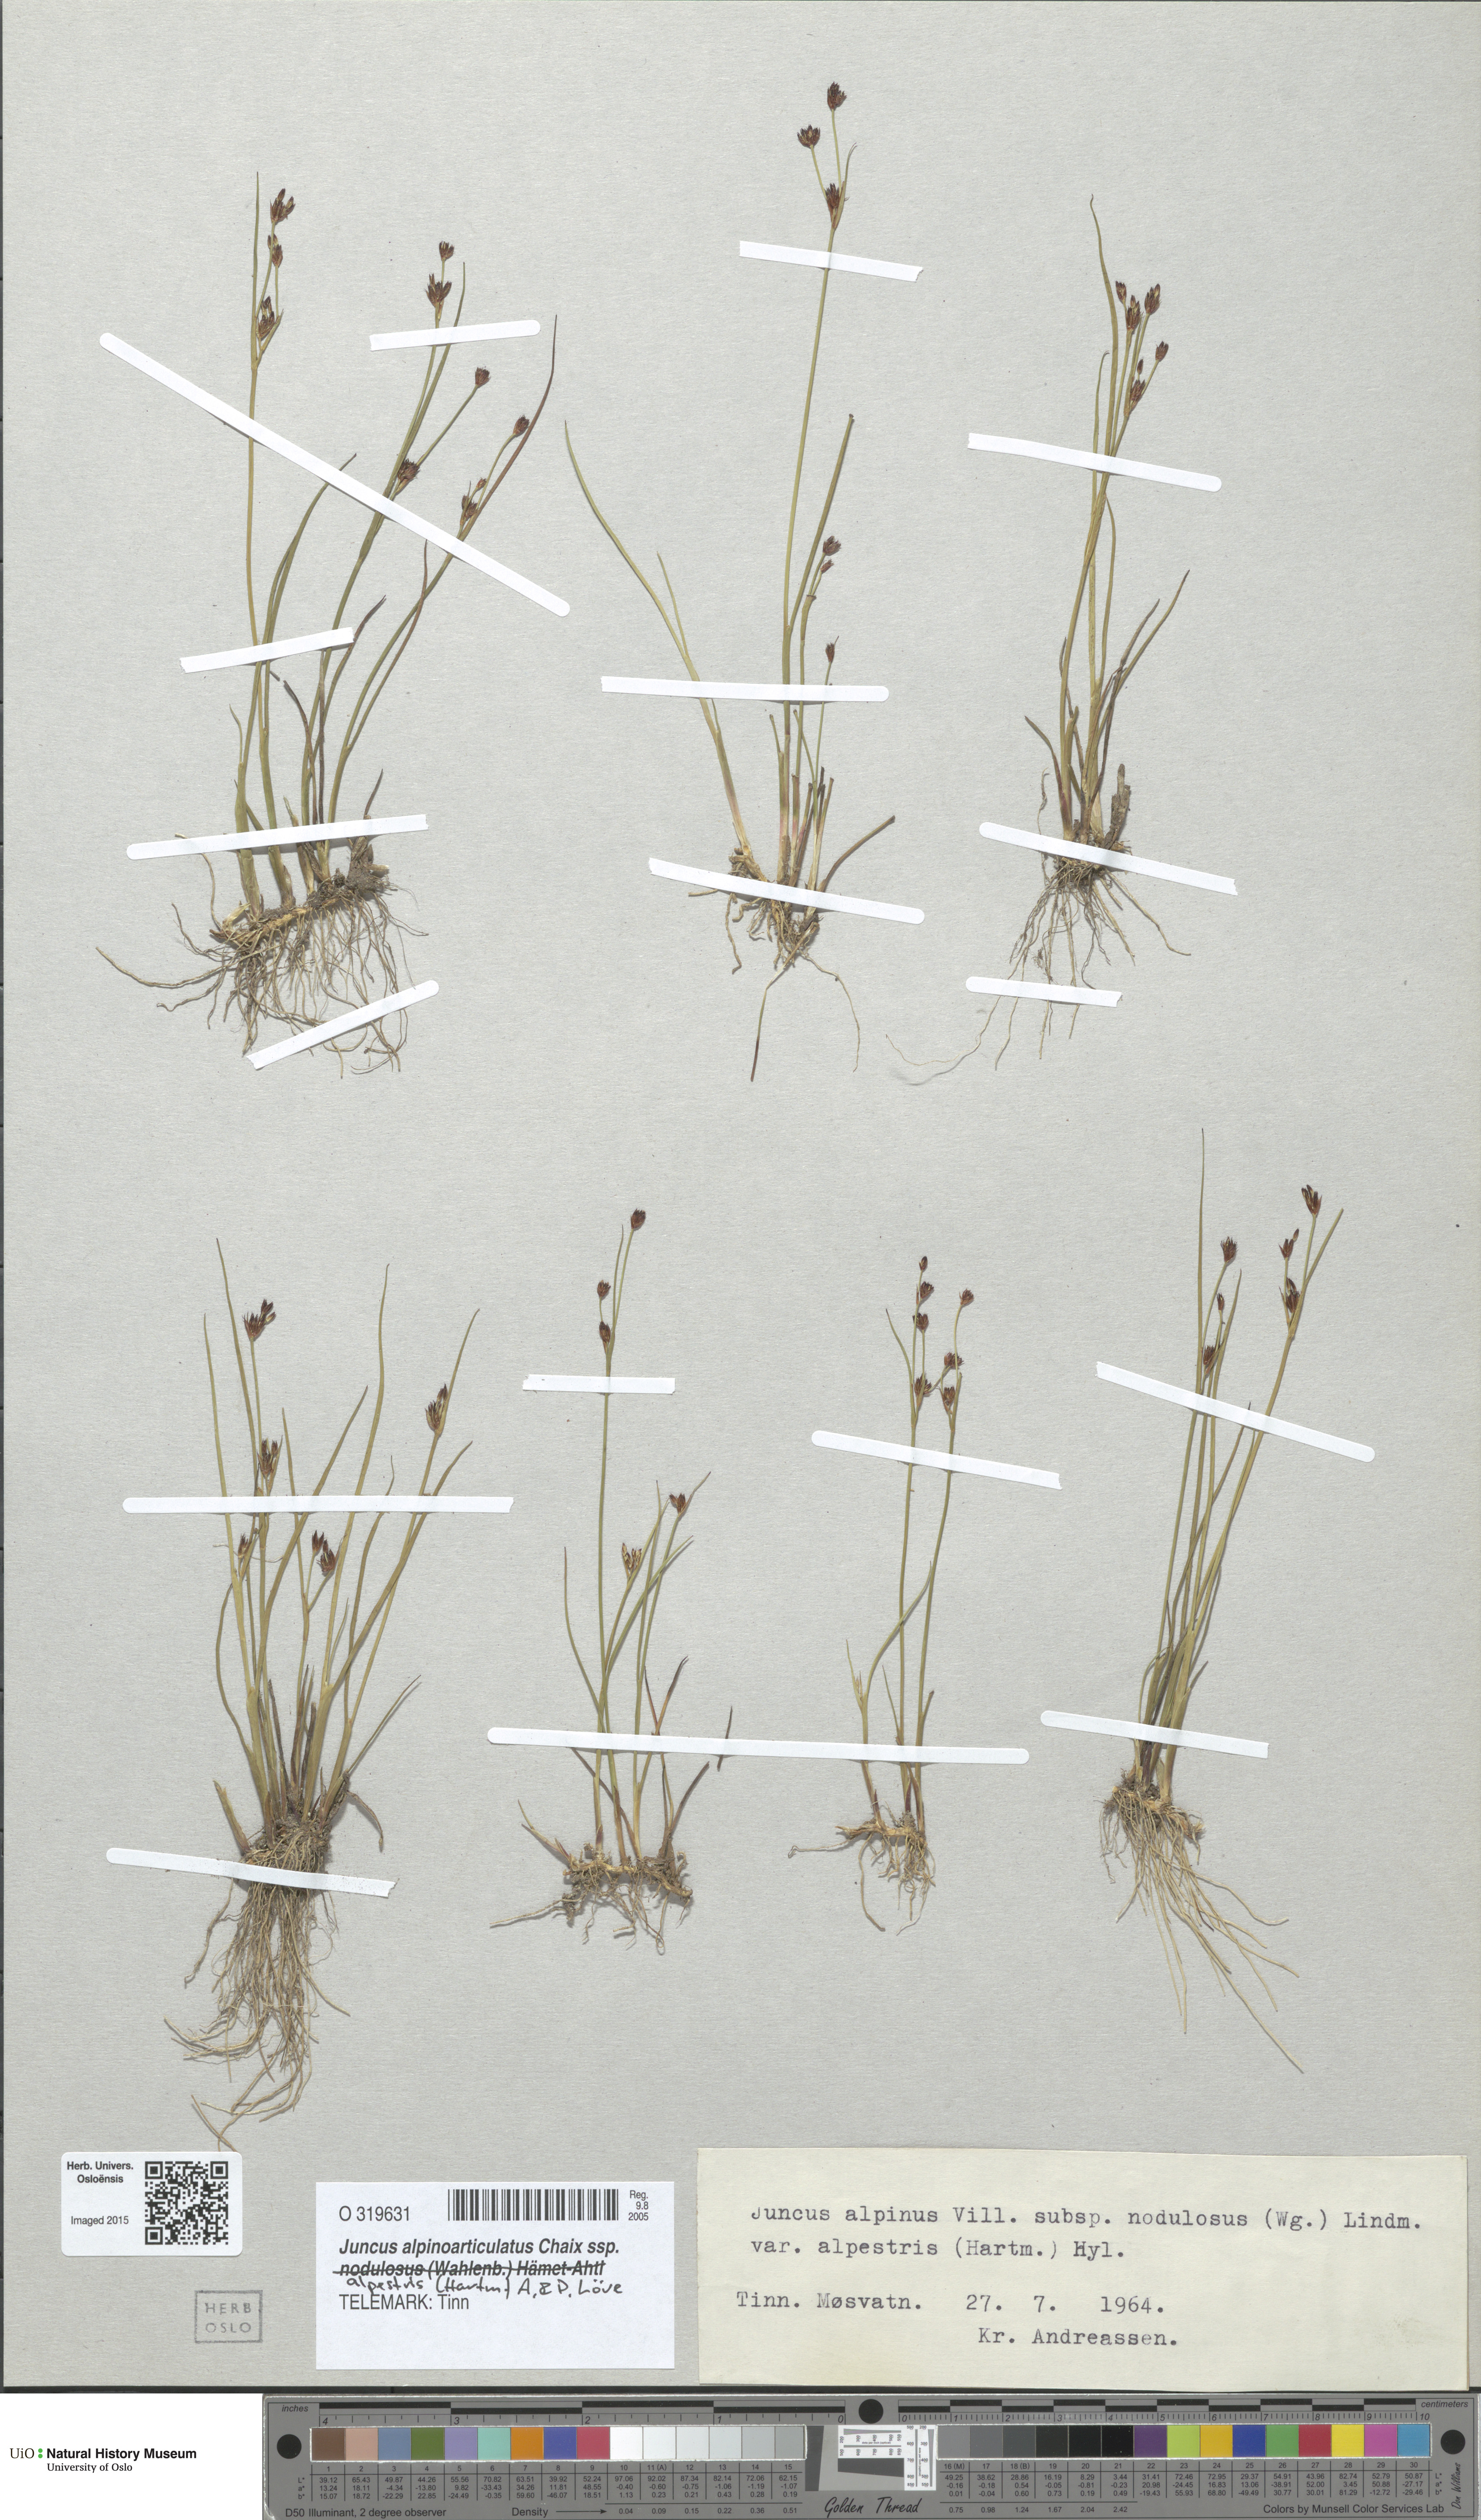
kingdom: Plantae
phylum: Tracheophyta
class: Liliopsida
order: Poales
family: Juncaceae
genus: Juncus
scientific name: Juncus alpinoarticulatus
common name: Alpine rush
